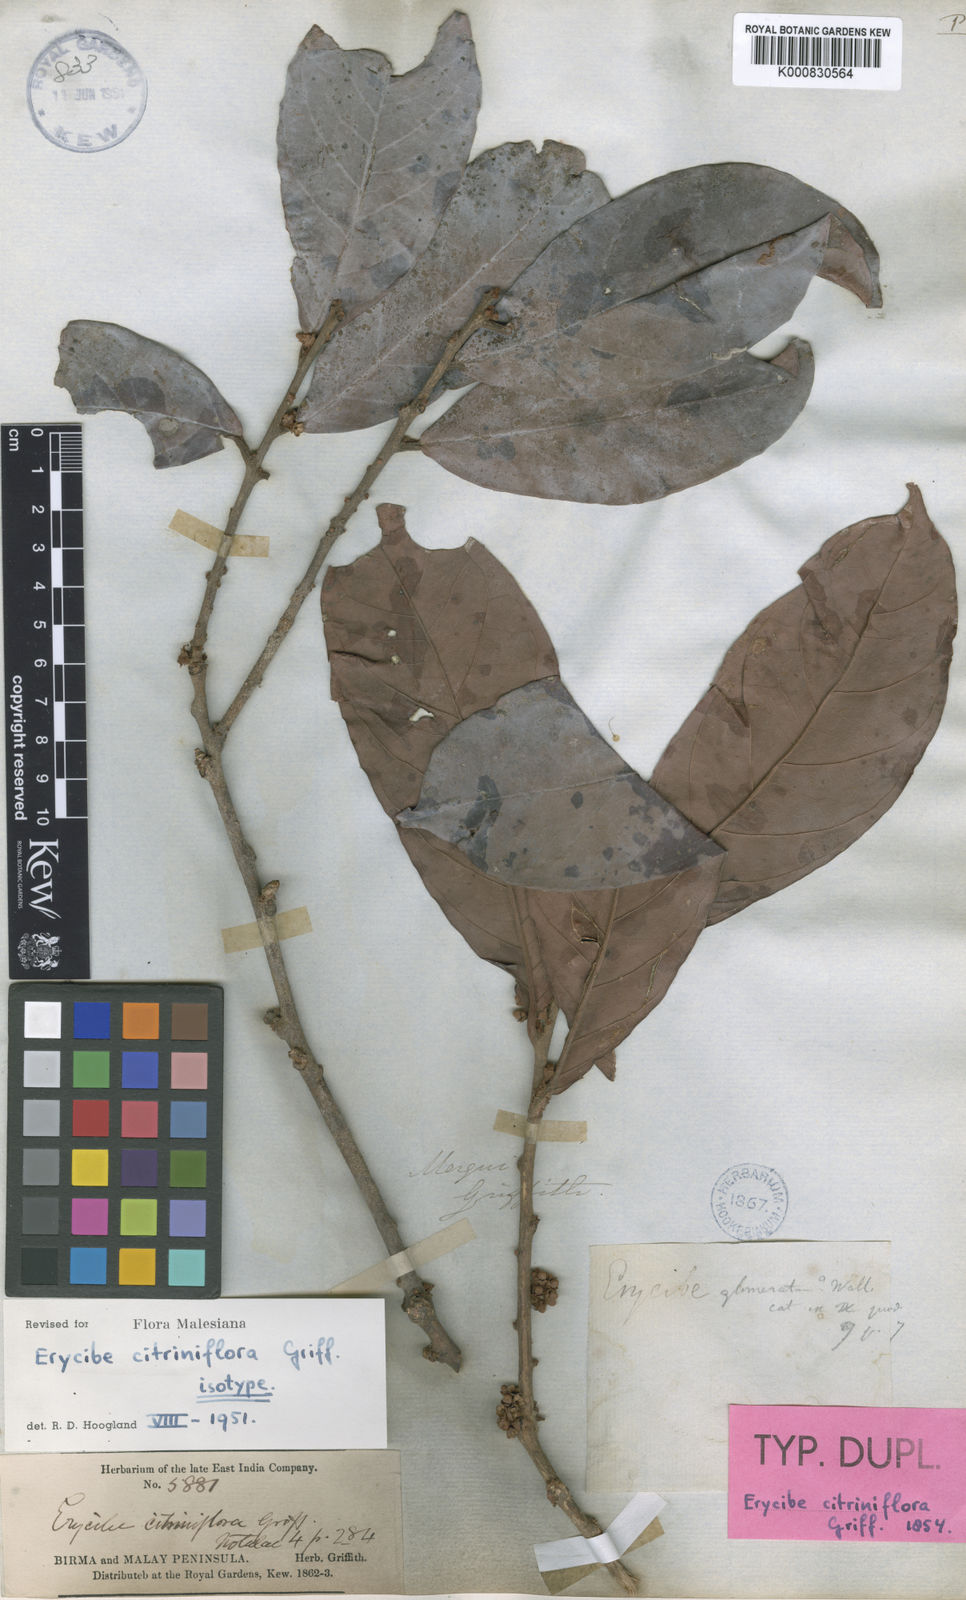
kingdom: Plantae
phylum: Tracheophyta
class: Magnoliopsida
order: Solanales
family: Convolvulaceae
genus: Erycibe
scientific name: Erycibe citriniflora
